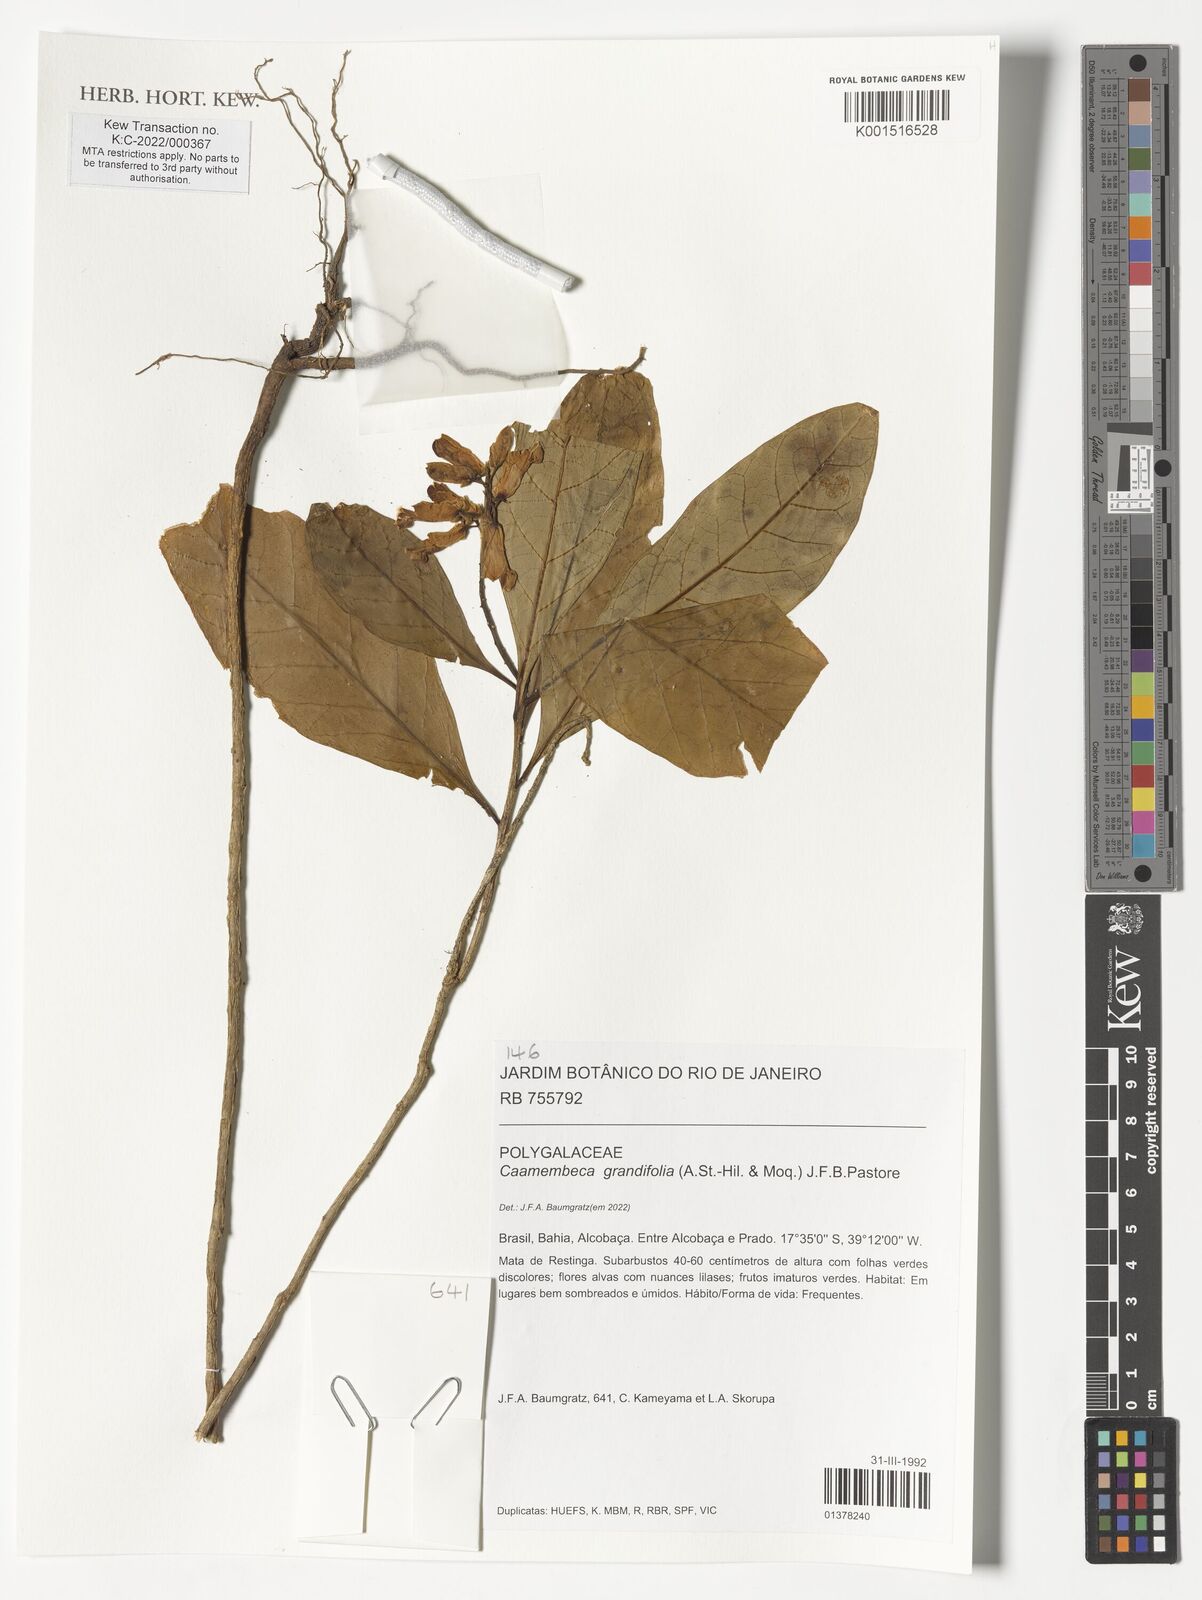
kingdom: Plantae
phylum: Tracheophyta
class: Magnoliopsida
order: Fabales
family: Polygalaceae
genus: Caamembeca
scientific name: Caamembeca grandifolia
